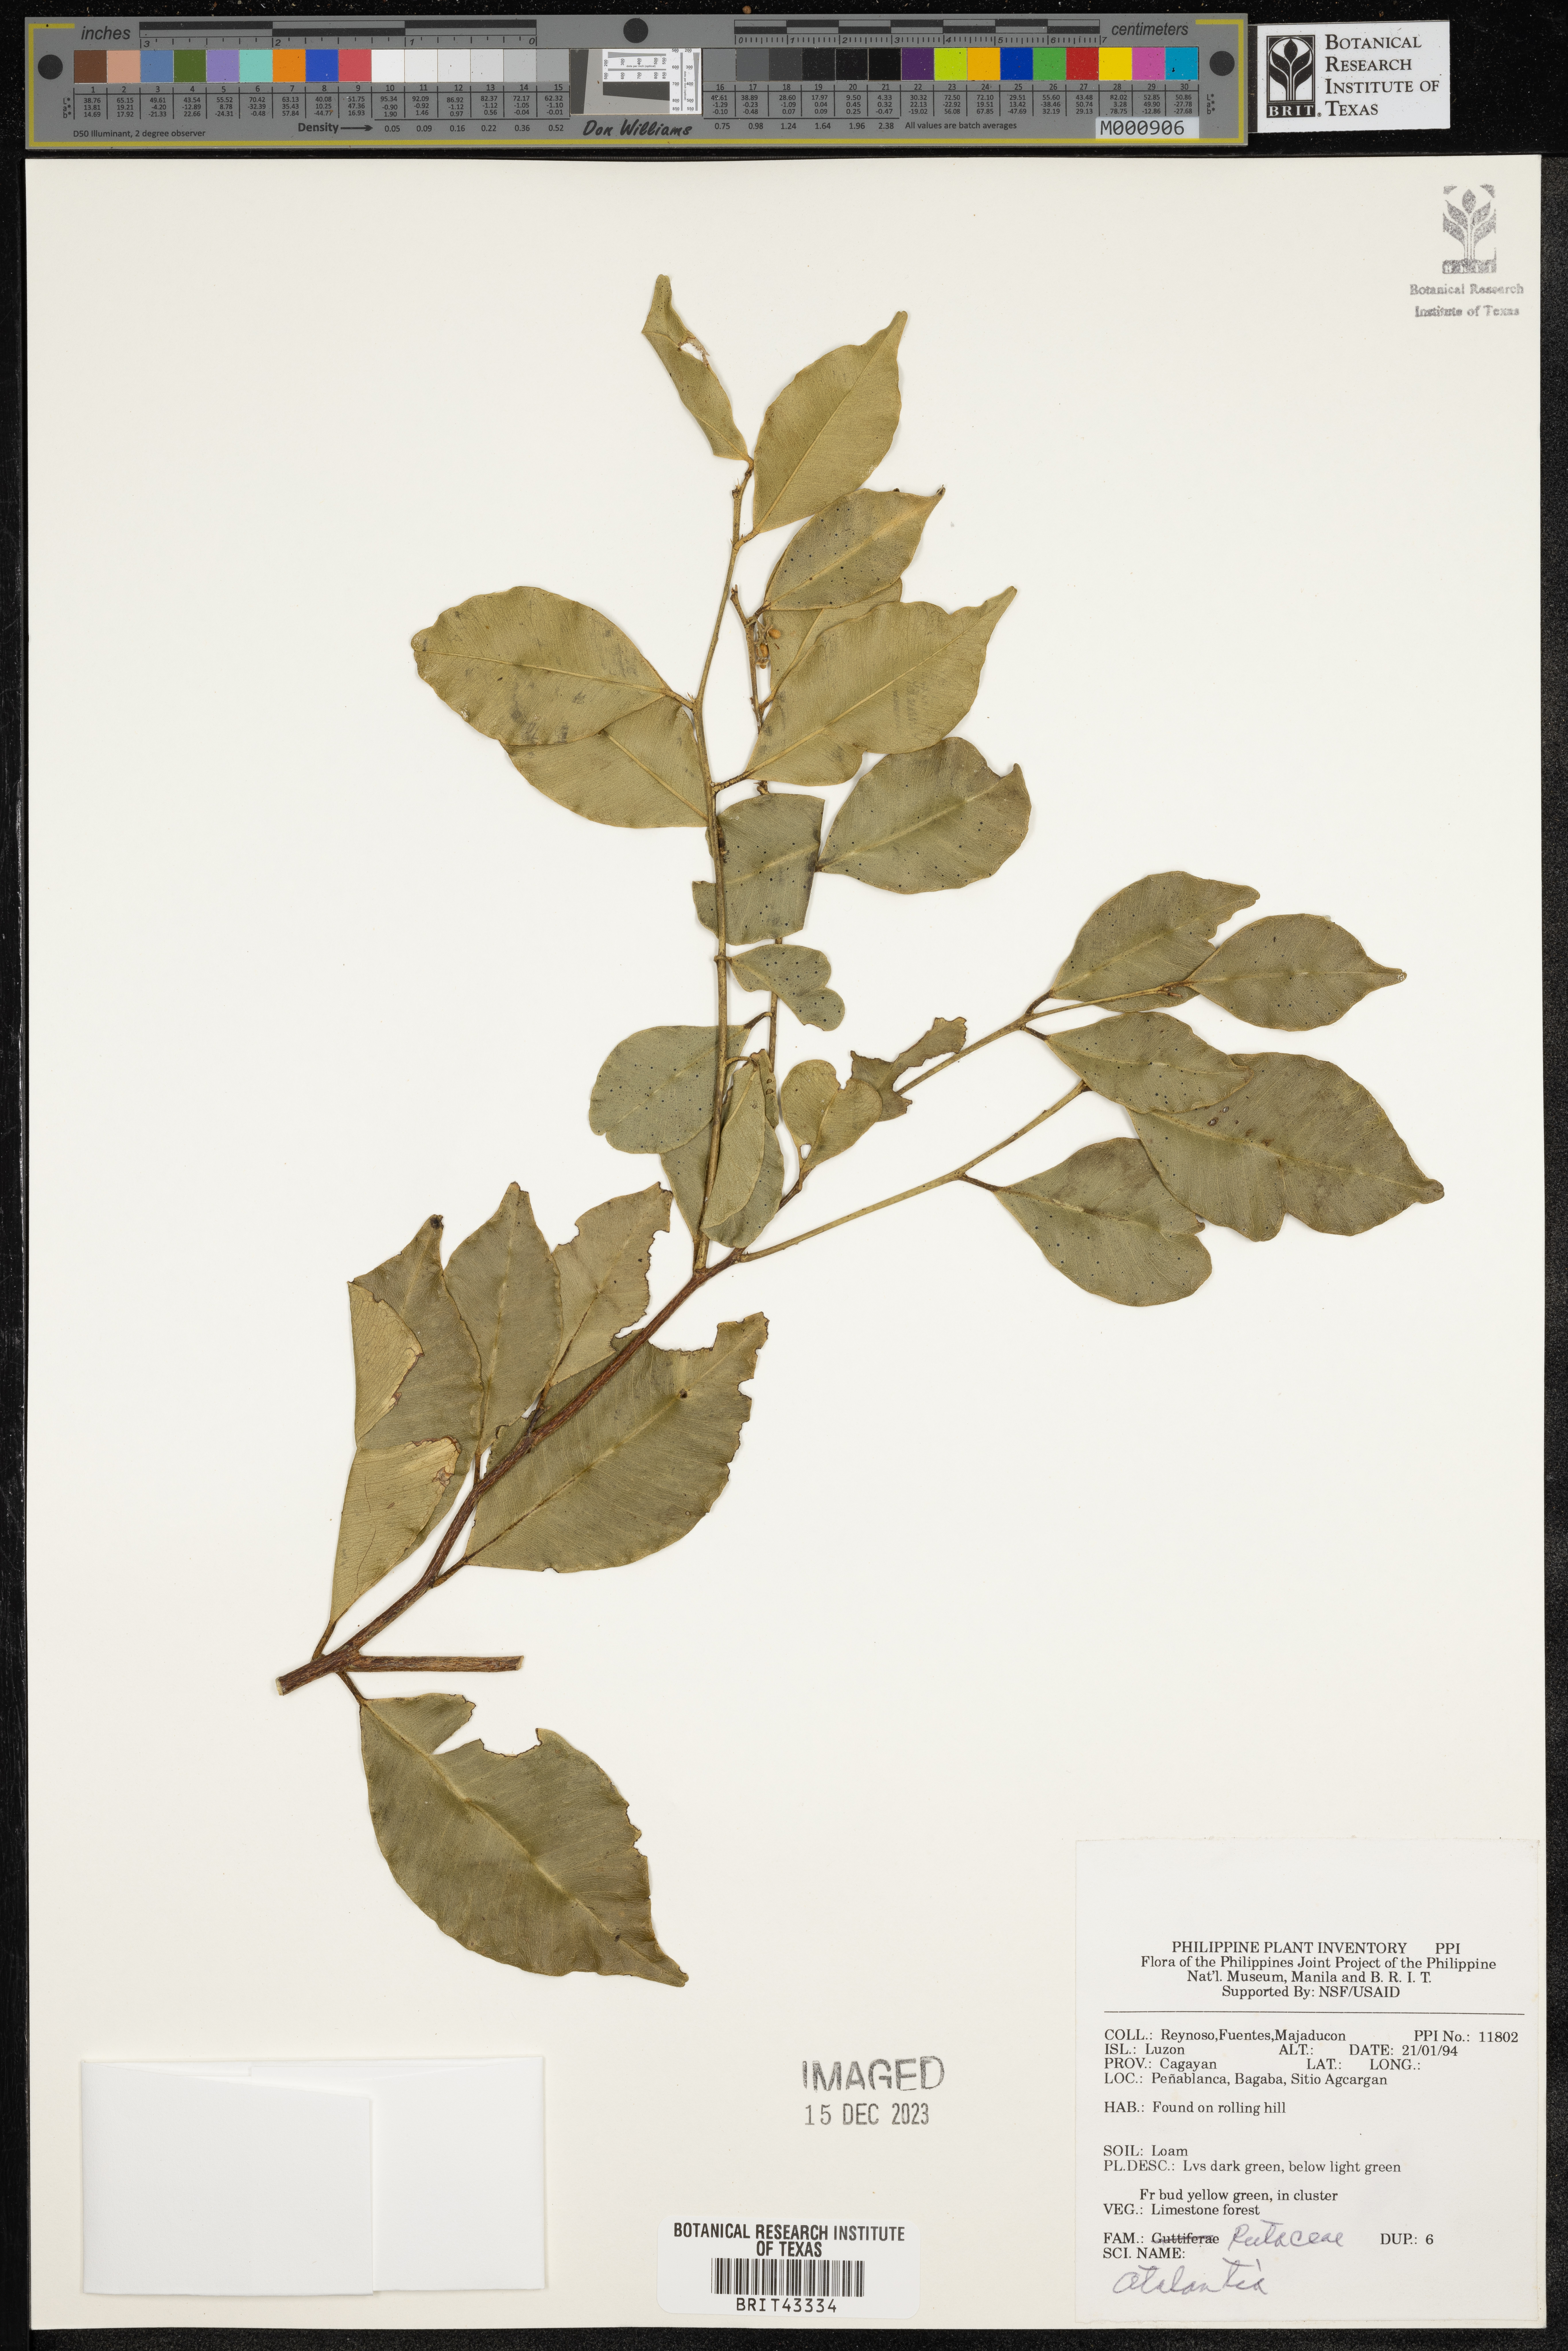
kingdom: Plantae
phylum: Tracheophyta
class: Magnoliopsida
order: Sapindales
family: Rutaceae
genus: Atalantia
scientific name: Atalantia
